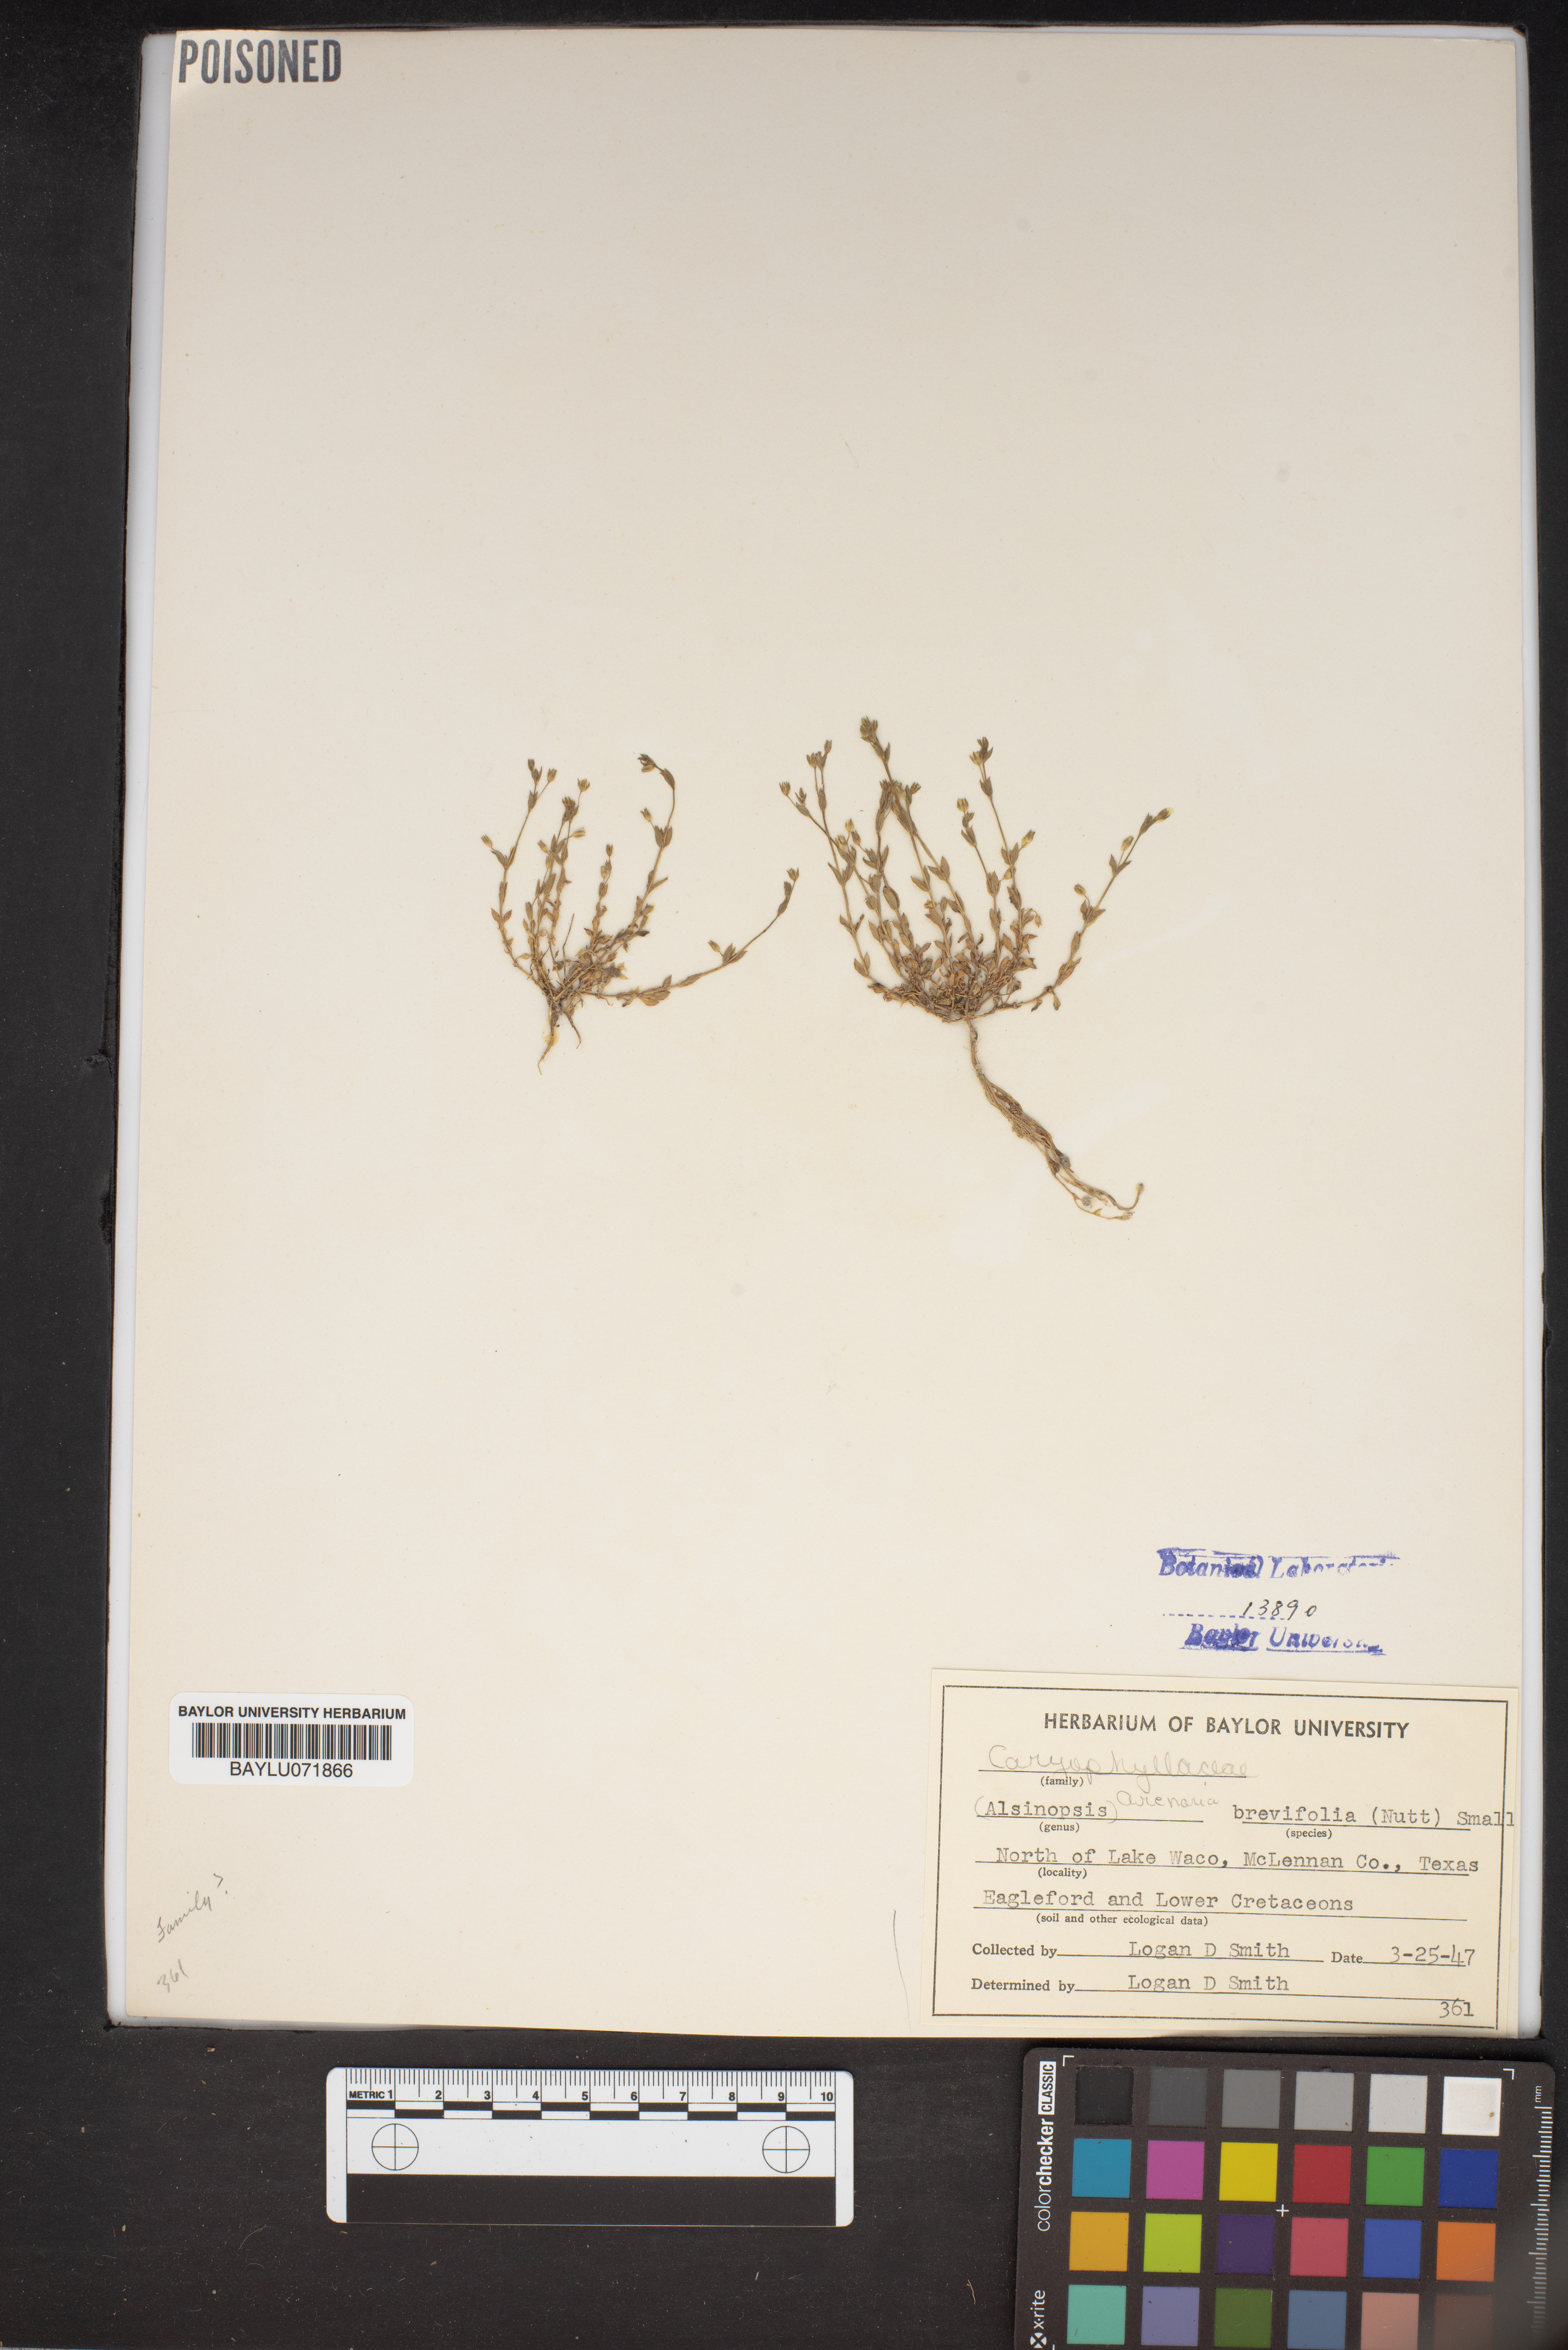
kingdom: Plantae
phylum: Tracheophyta
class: Magnoliopsida
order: Caryophyllales
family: Caryophyllaceae
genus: Geocarpon
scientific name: Geocarpon uniflorum
